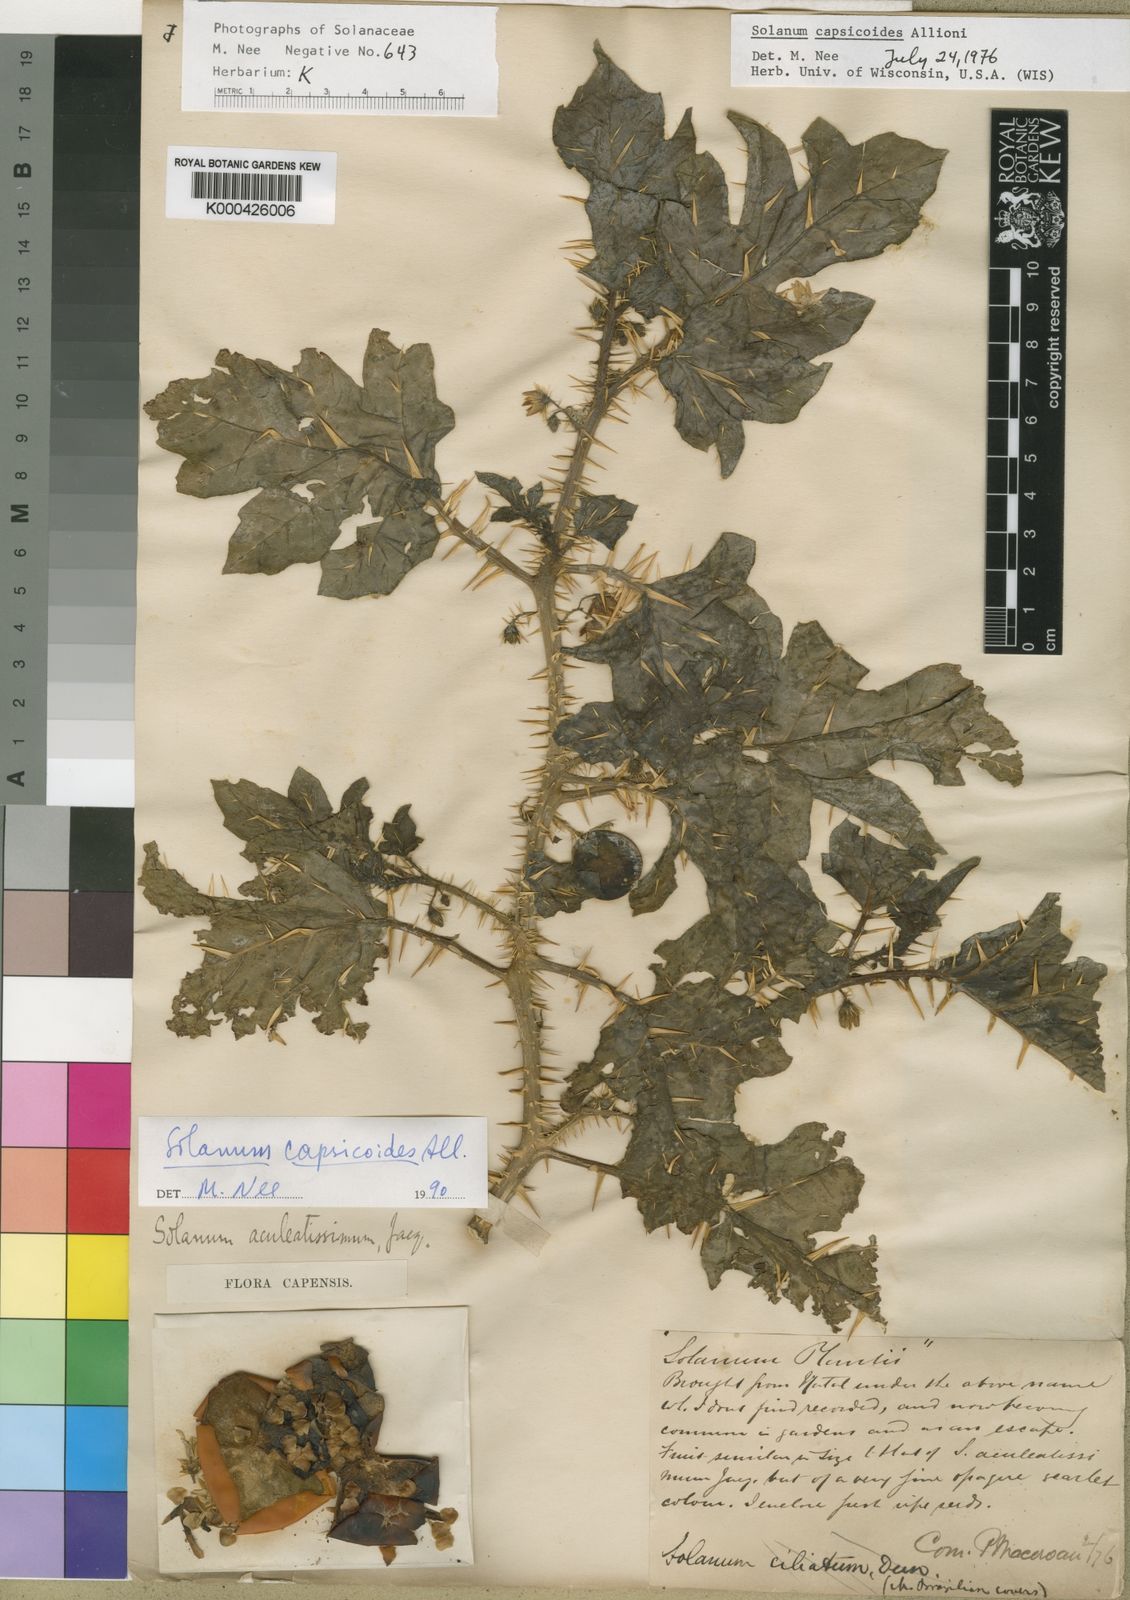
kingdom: Plantae
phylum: Tracheophyta
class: Magnoliopsida
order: Solanales
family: Solanaceae
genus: Solanum
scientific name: Solanum capsicoides
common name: Cockroach berry
